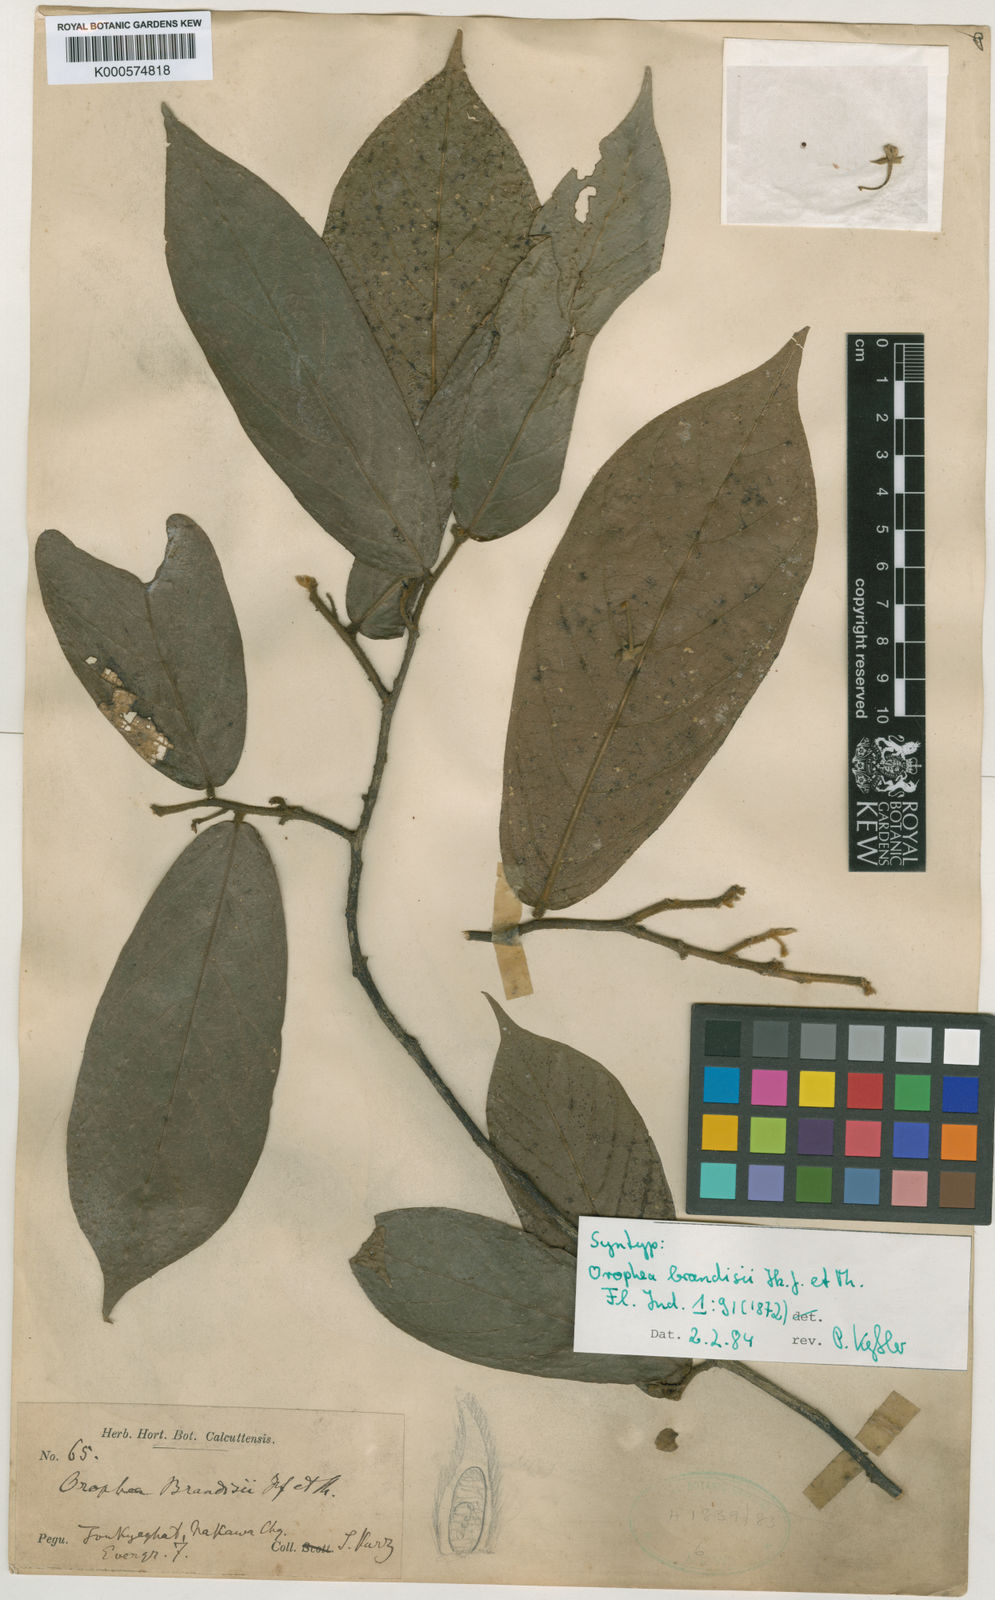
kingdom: Plantae
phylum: Tracheophyta
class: Magnoliopsida
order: Magnoliales
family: Annonaceae
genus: Orophea
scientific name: Orophea brandisii
